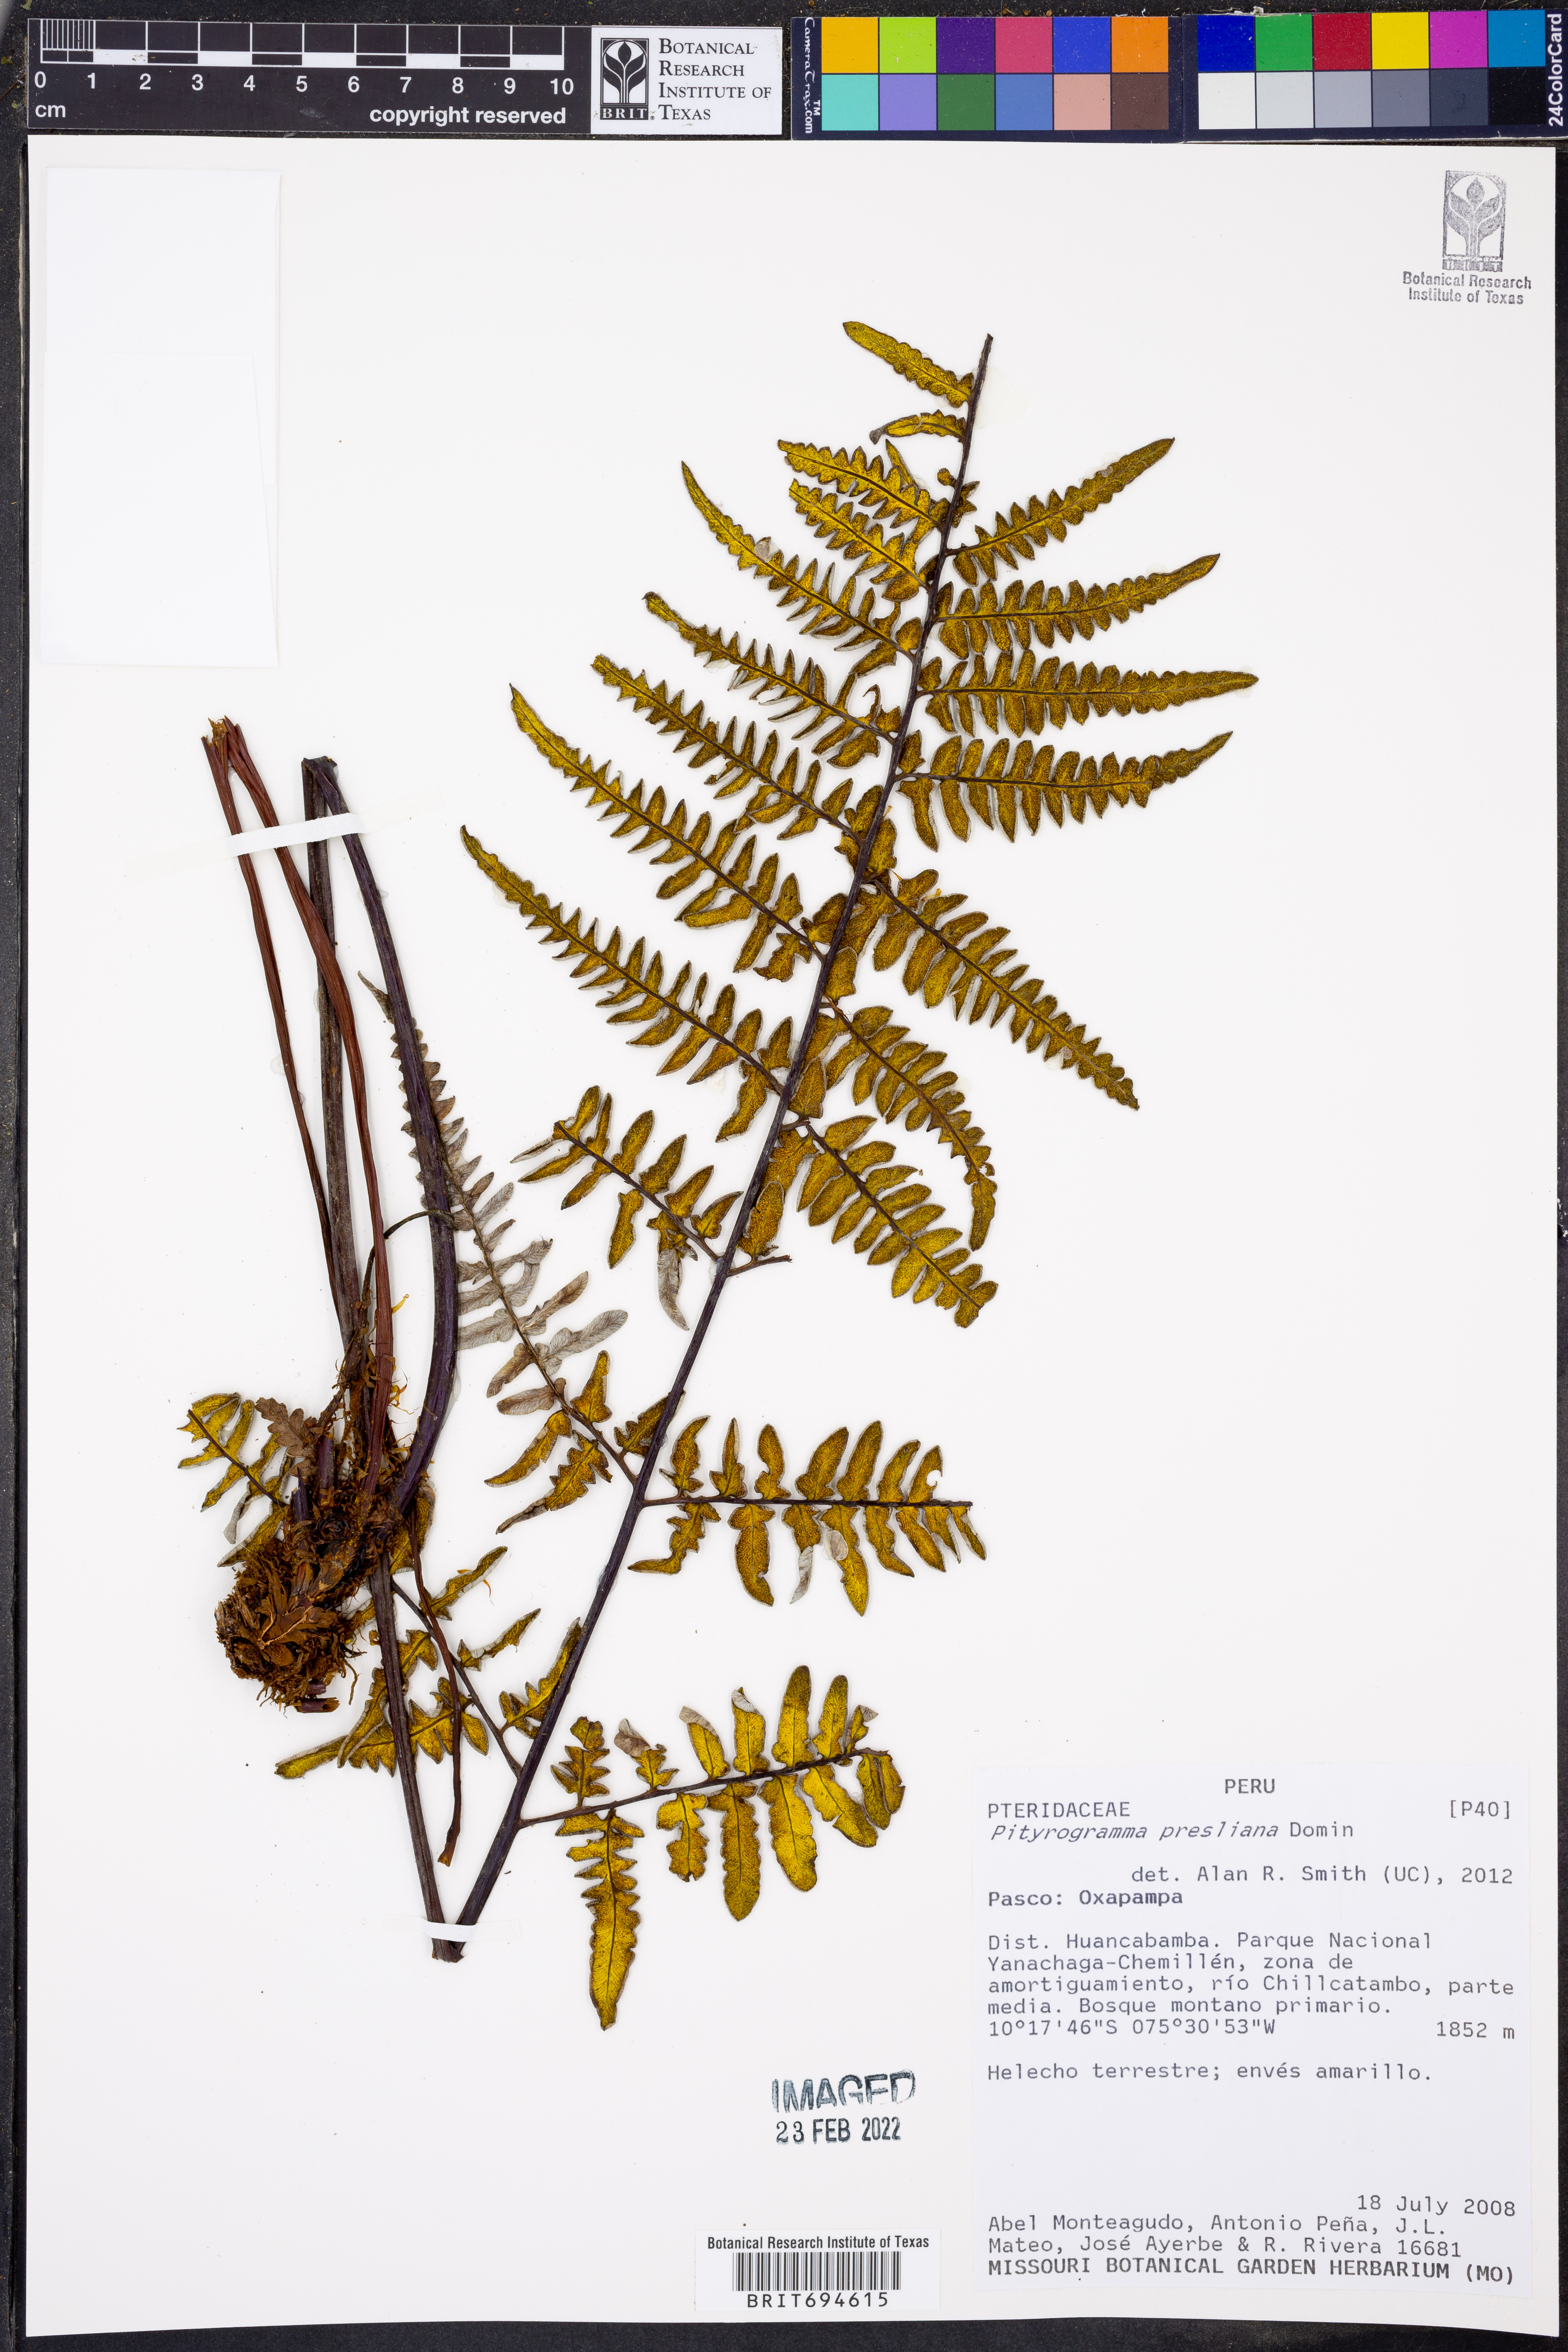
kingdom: Plantae
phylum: Tracheophyta
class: Polypodiopsida
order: Polypodiales
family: Pteridaceae
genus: Pityrogramma
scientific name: Pityrogramma ebenea
